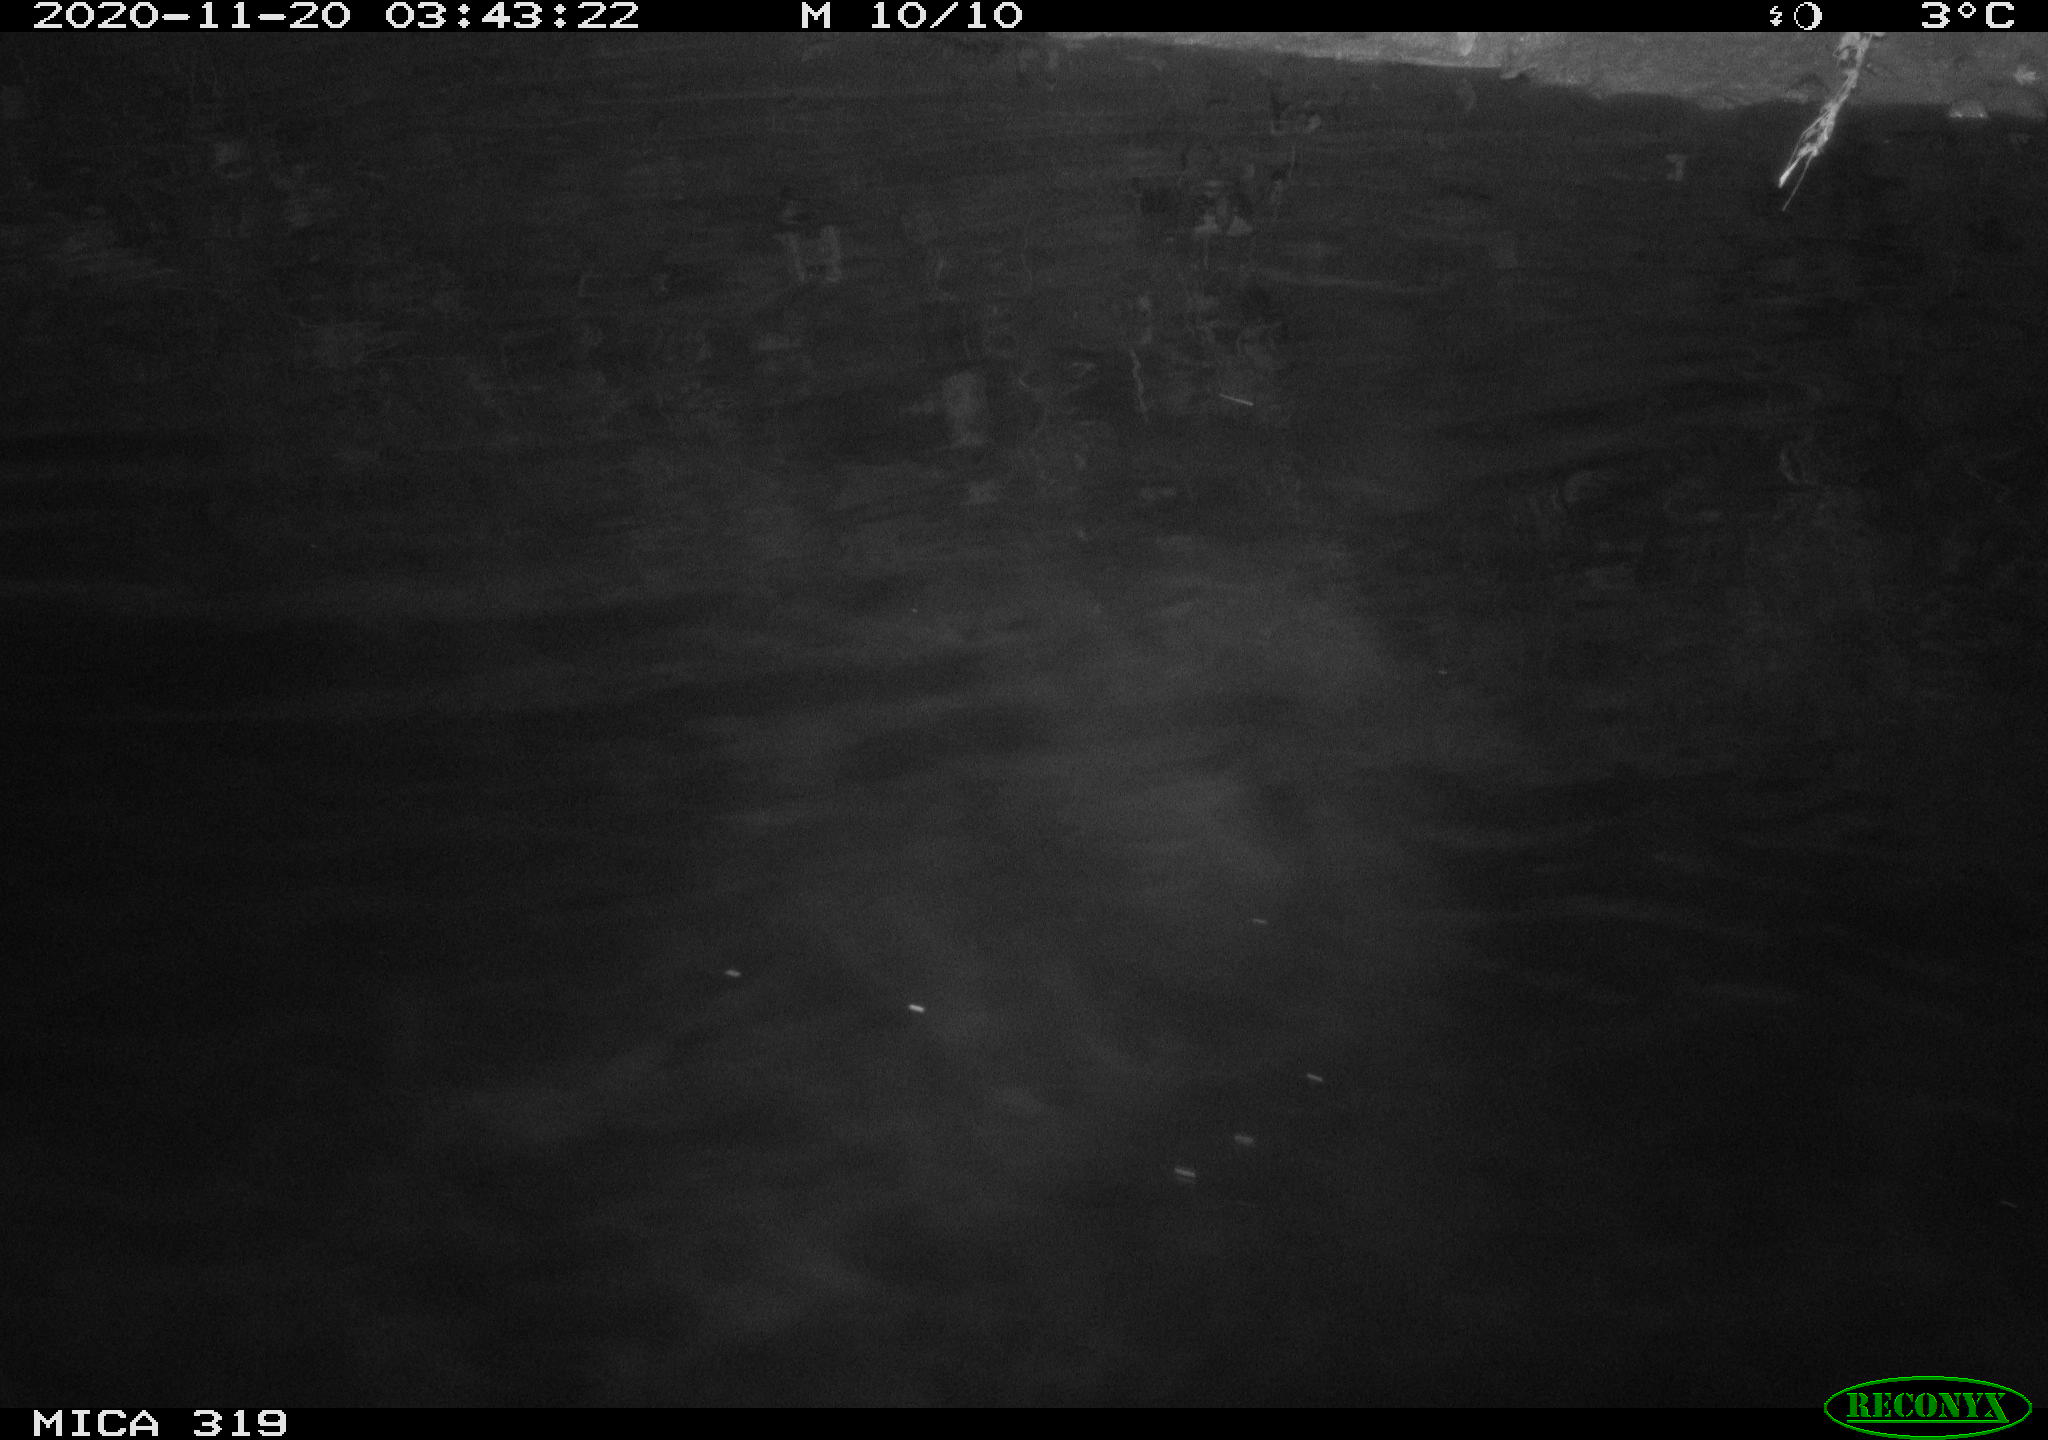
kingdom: Animalia
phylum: Chordata
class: Aves
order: Anseriformes
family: Anatidae
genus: Anas
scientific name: Anas platyrhynchos
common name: Mallard
